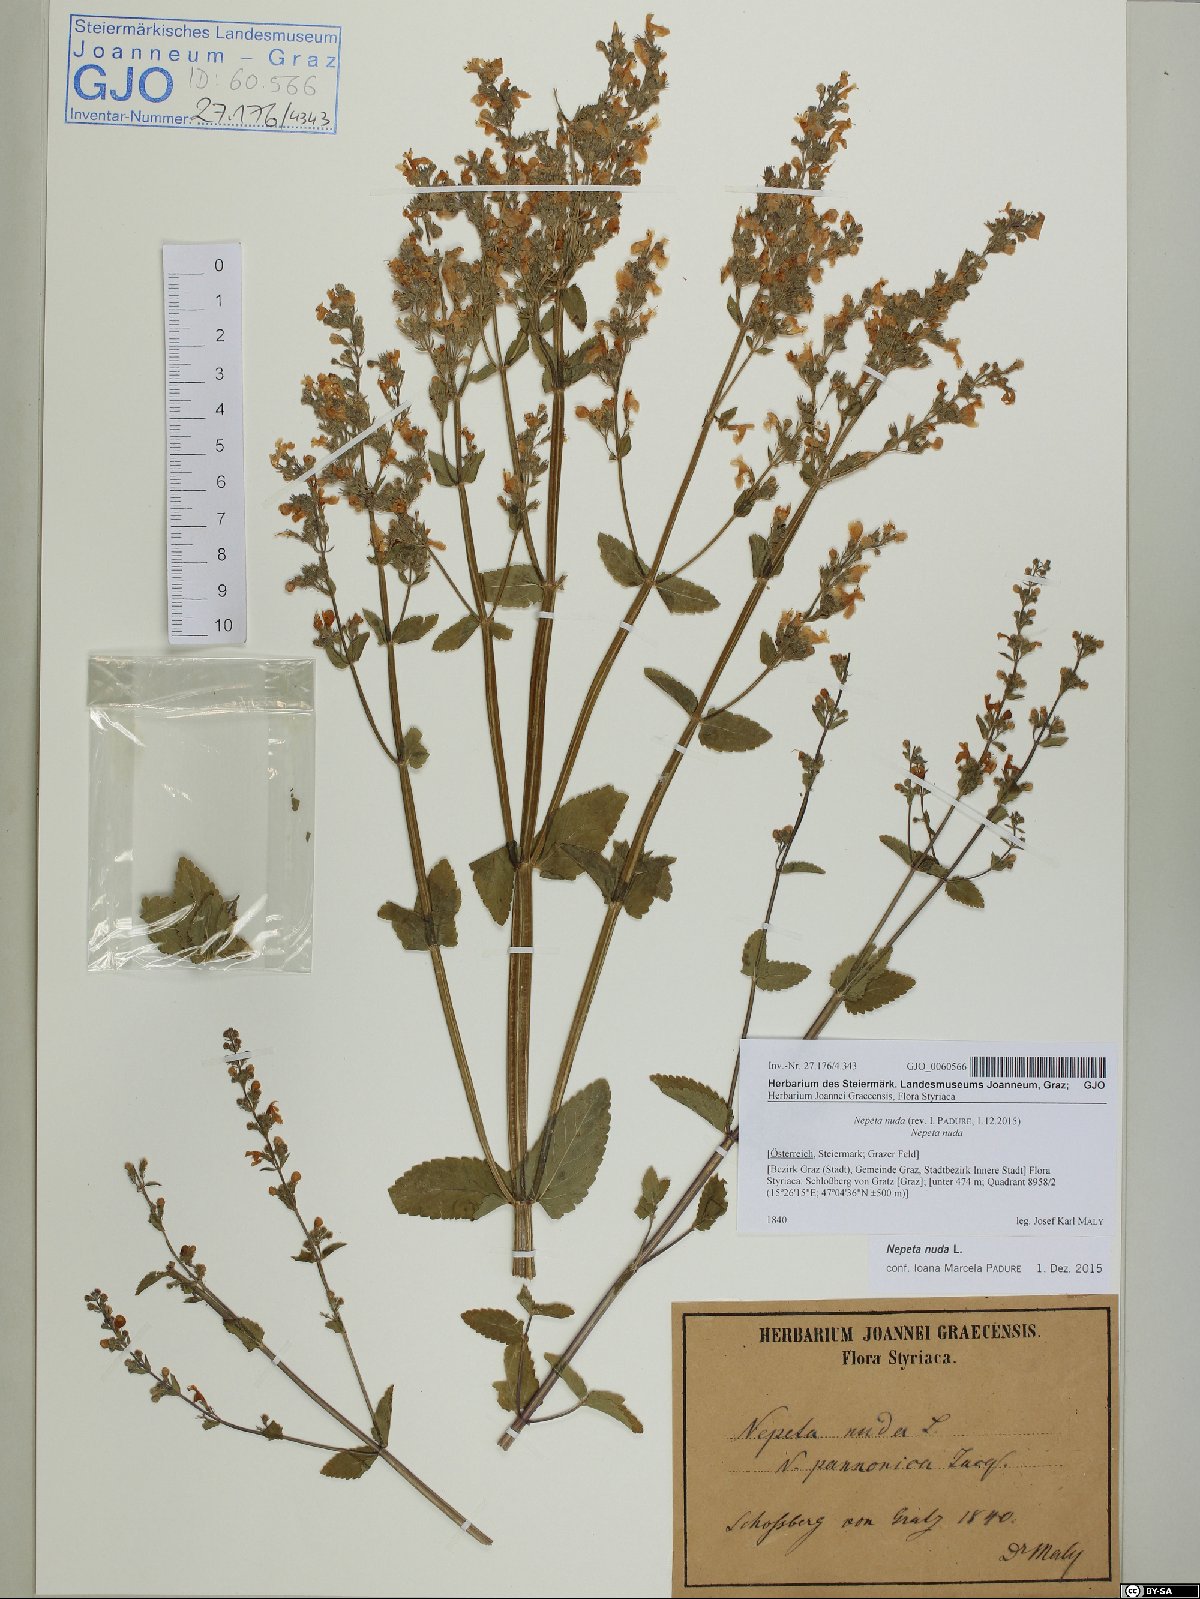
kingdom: Plantae
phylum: Tracheophyta
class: Magnoliopsida
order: Lamiales
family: Lamiaceae
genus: Nepeta
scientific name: Nepeta nuda
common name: Hairless catmint
